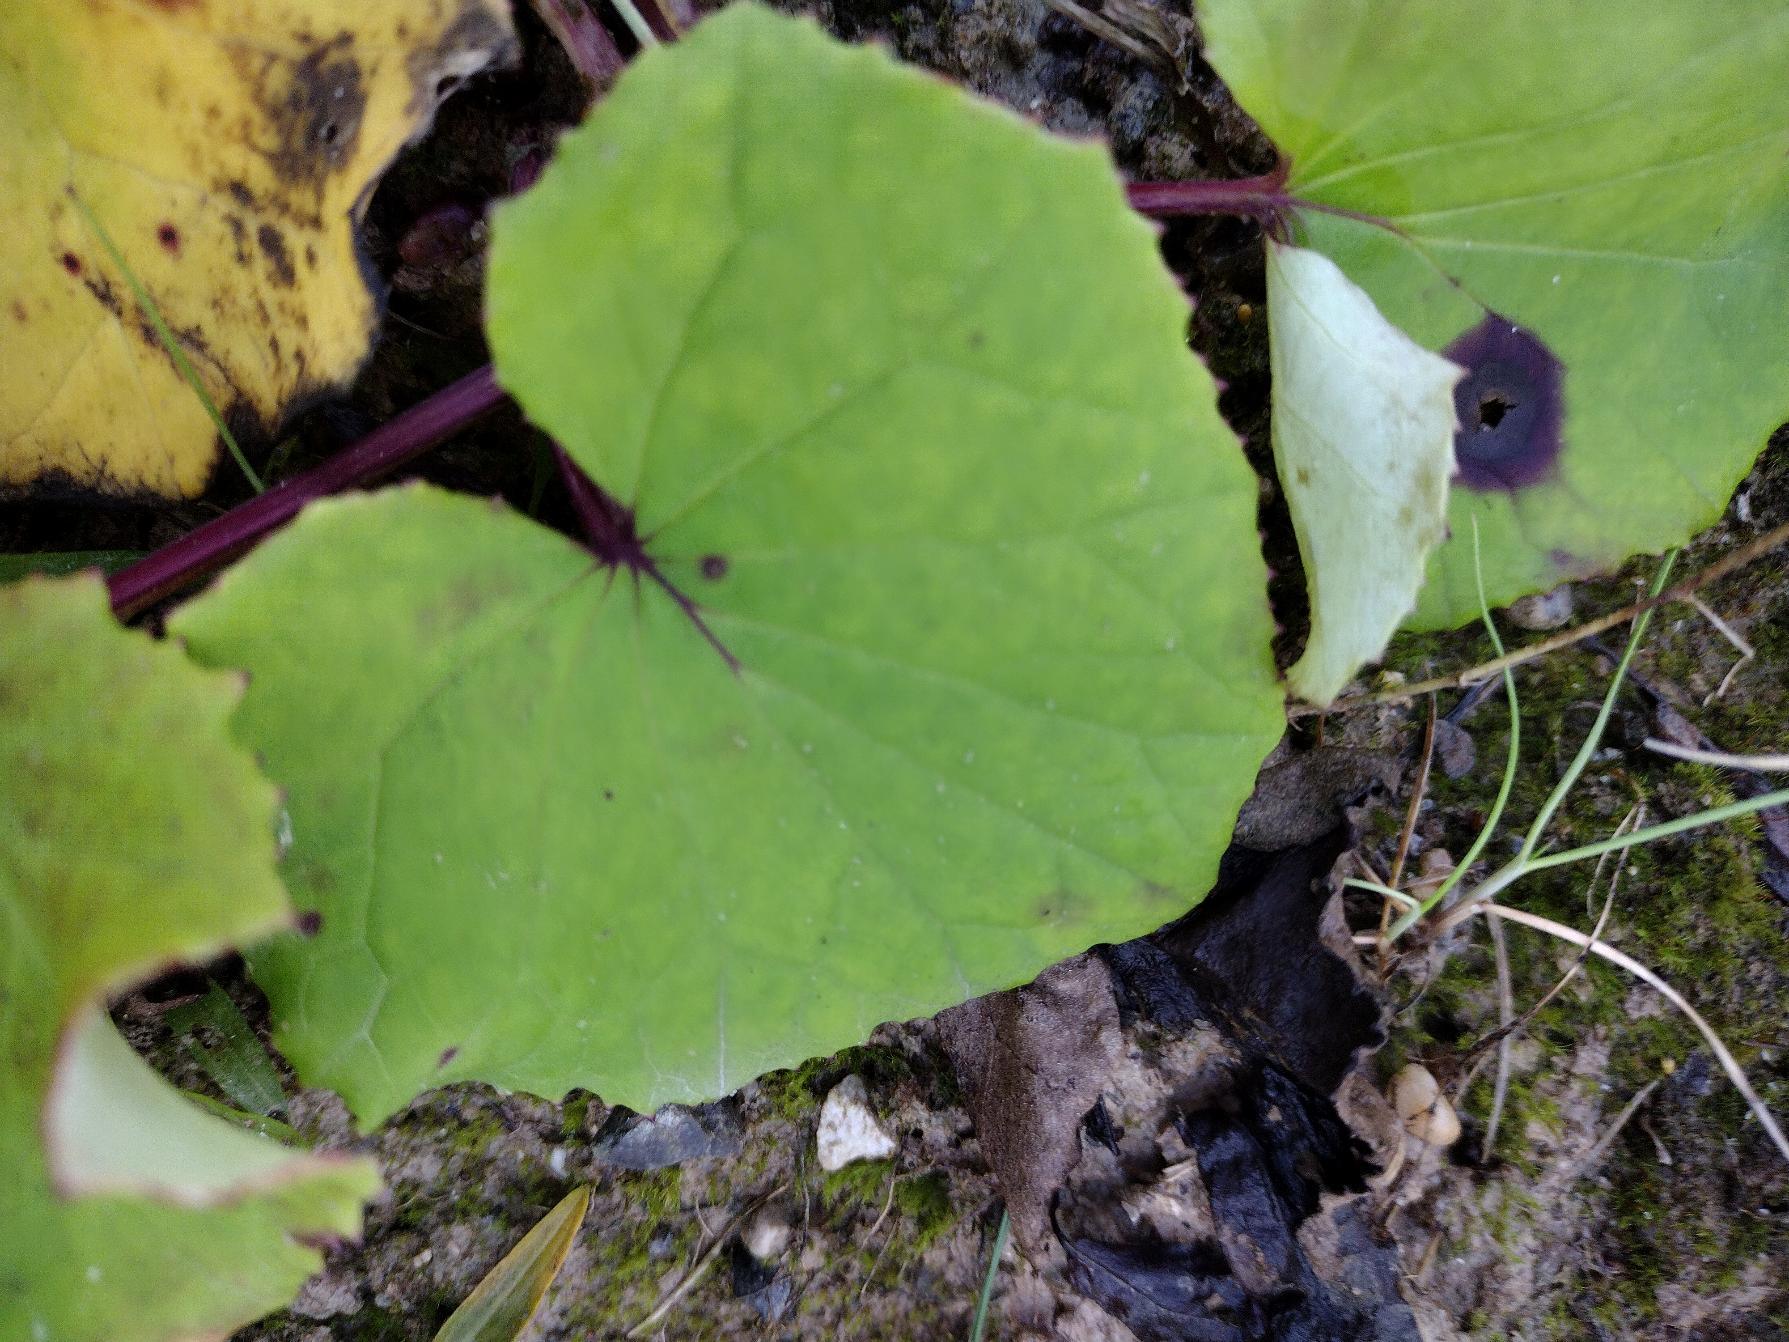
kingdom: Plantae
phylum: Tracheophyta
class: Magnoliopsida
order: Asterales
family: Asteraceae
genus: Tussilago
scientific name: Tussilago farfara
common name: Følfod
